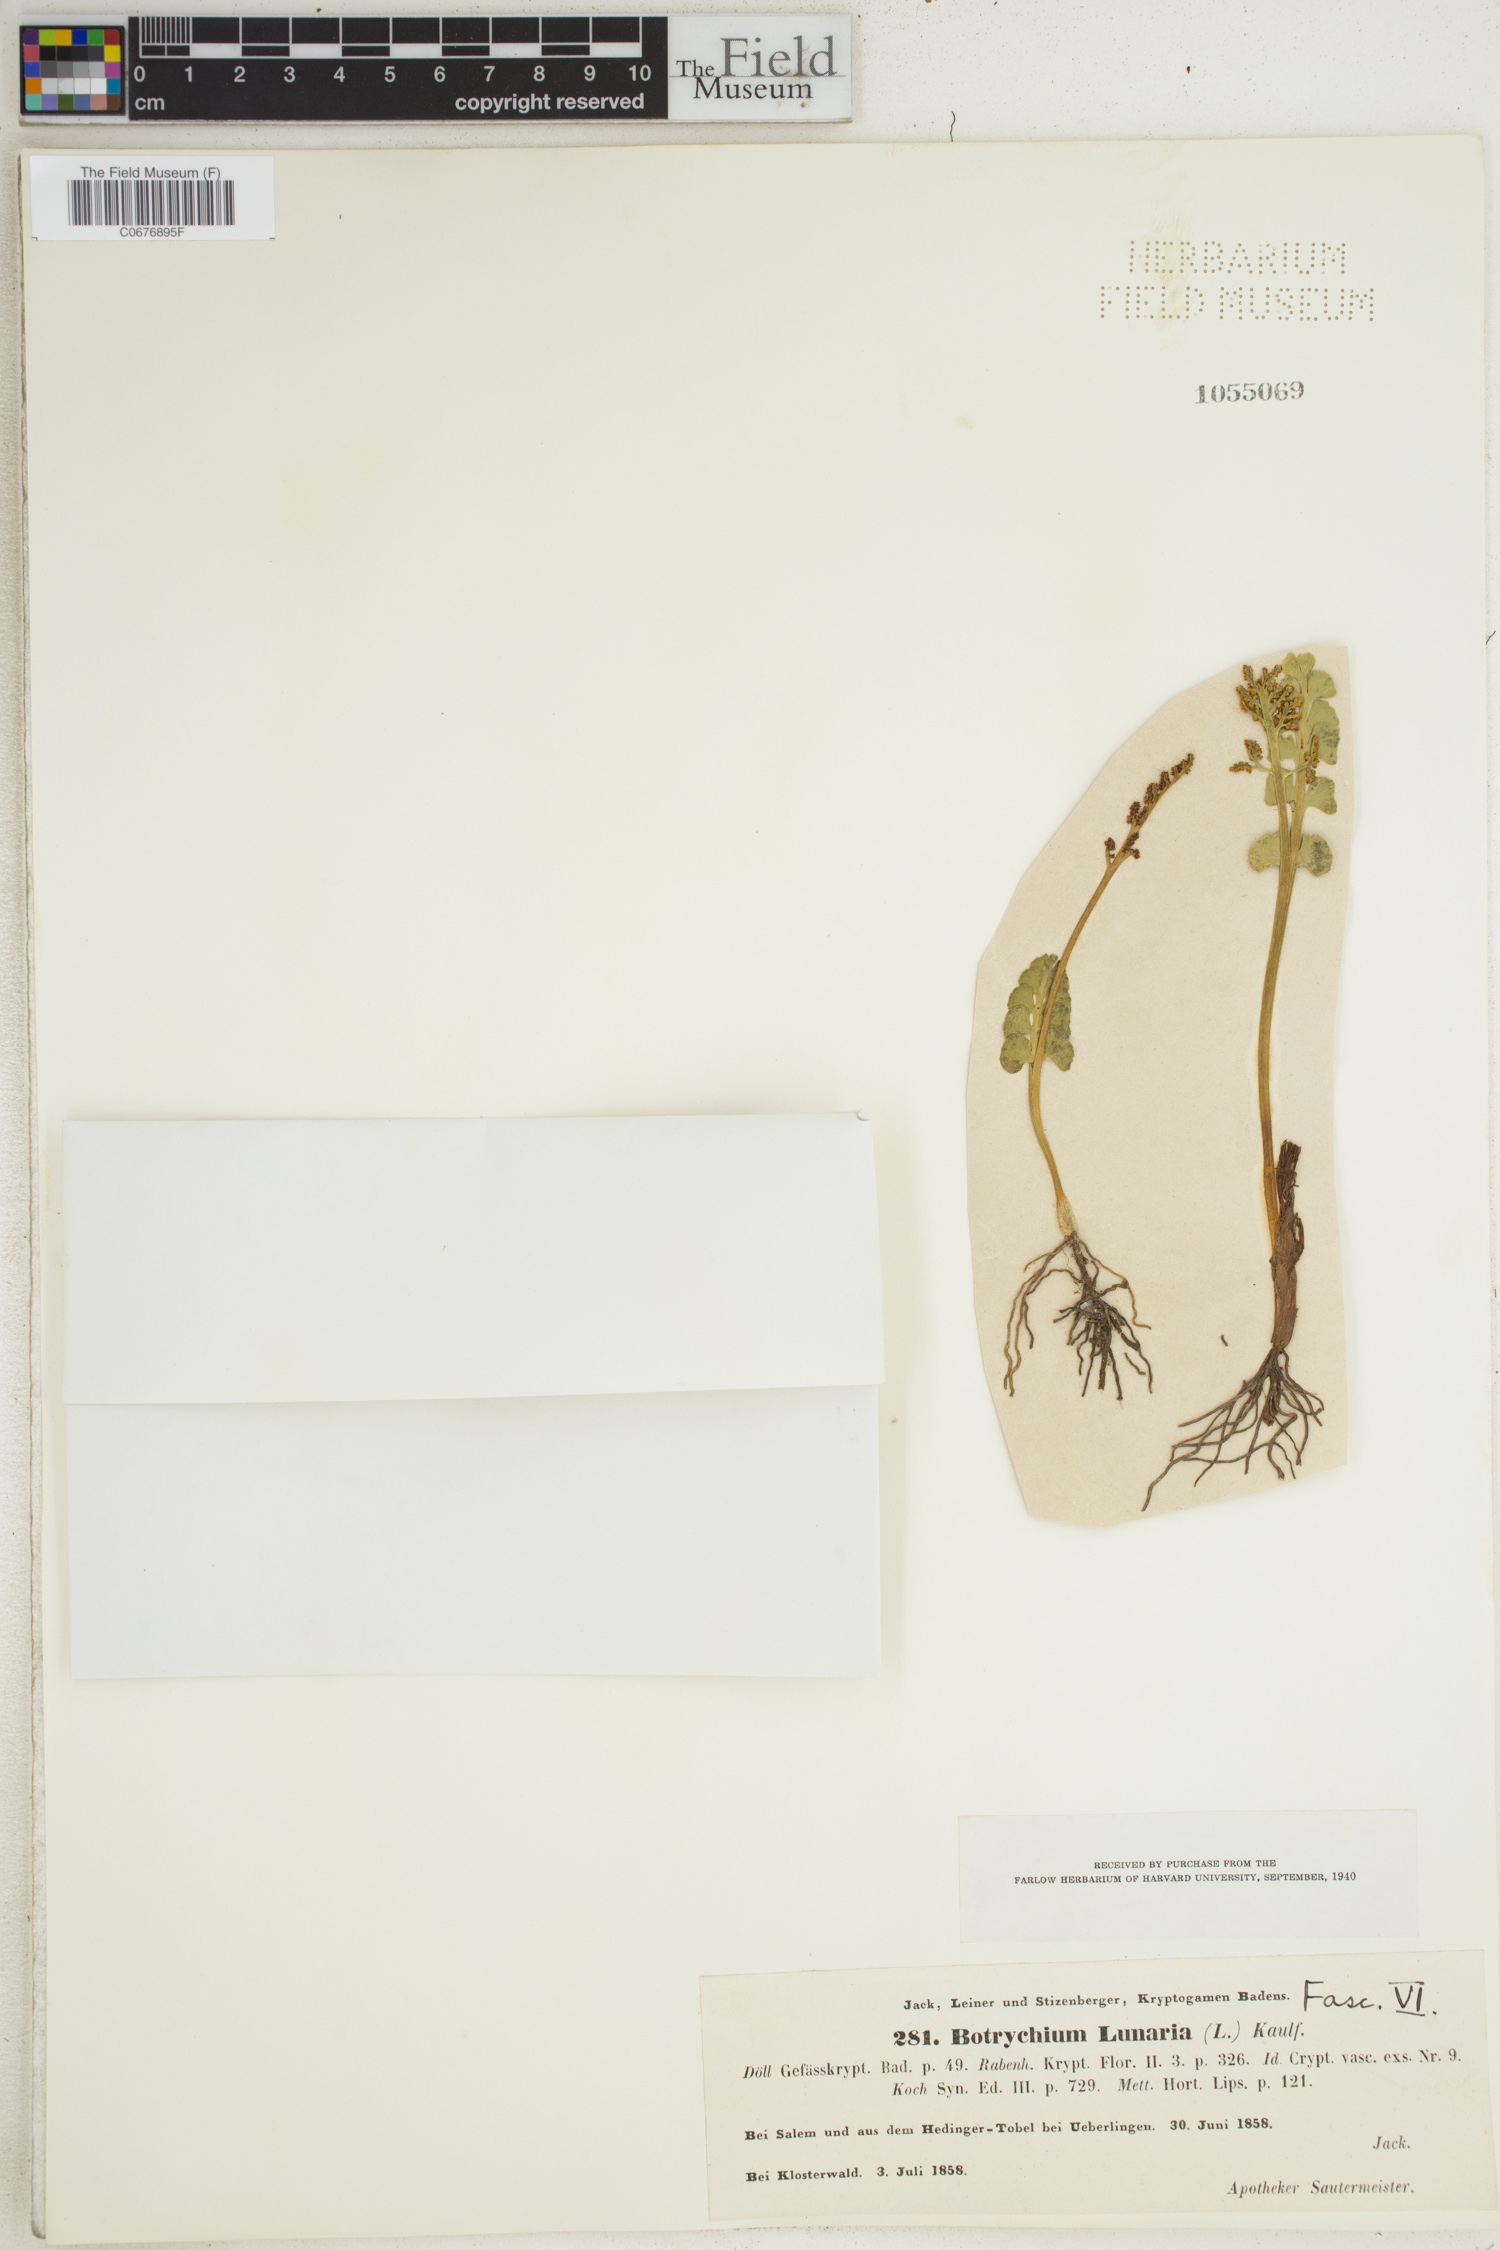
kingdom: Plantae
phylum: Tracheophyta
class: Polypodiopsida
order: Ophioglossales
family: Ophioglossaceae
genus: Botrychium
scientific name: Botrychium lunaria
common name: Moonwort
